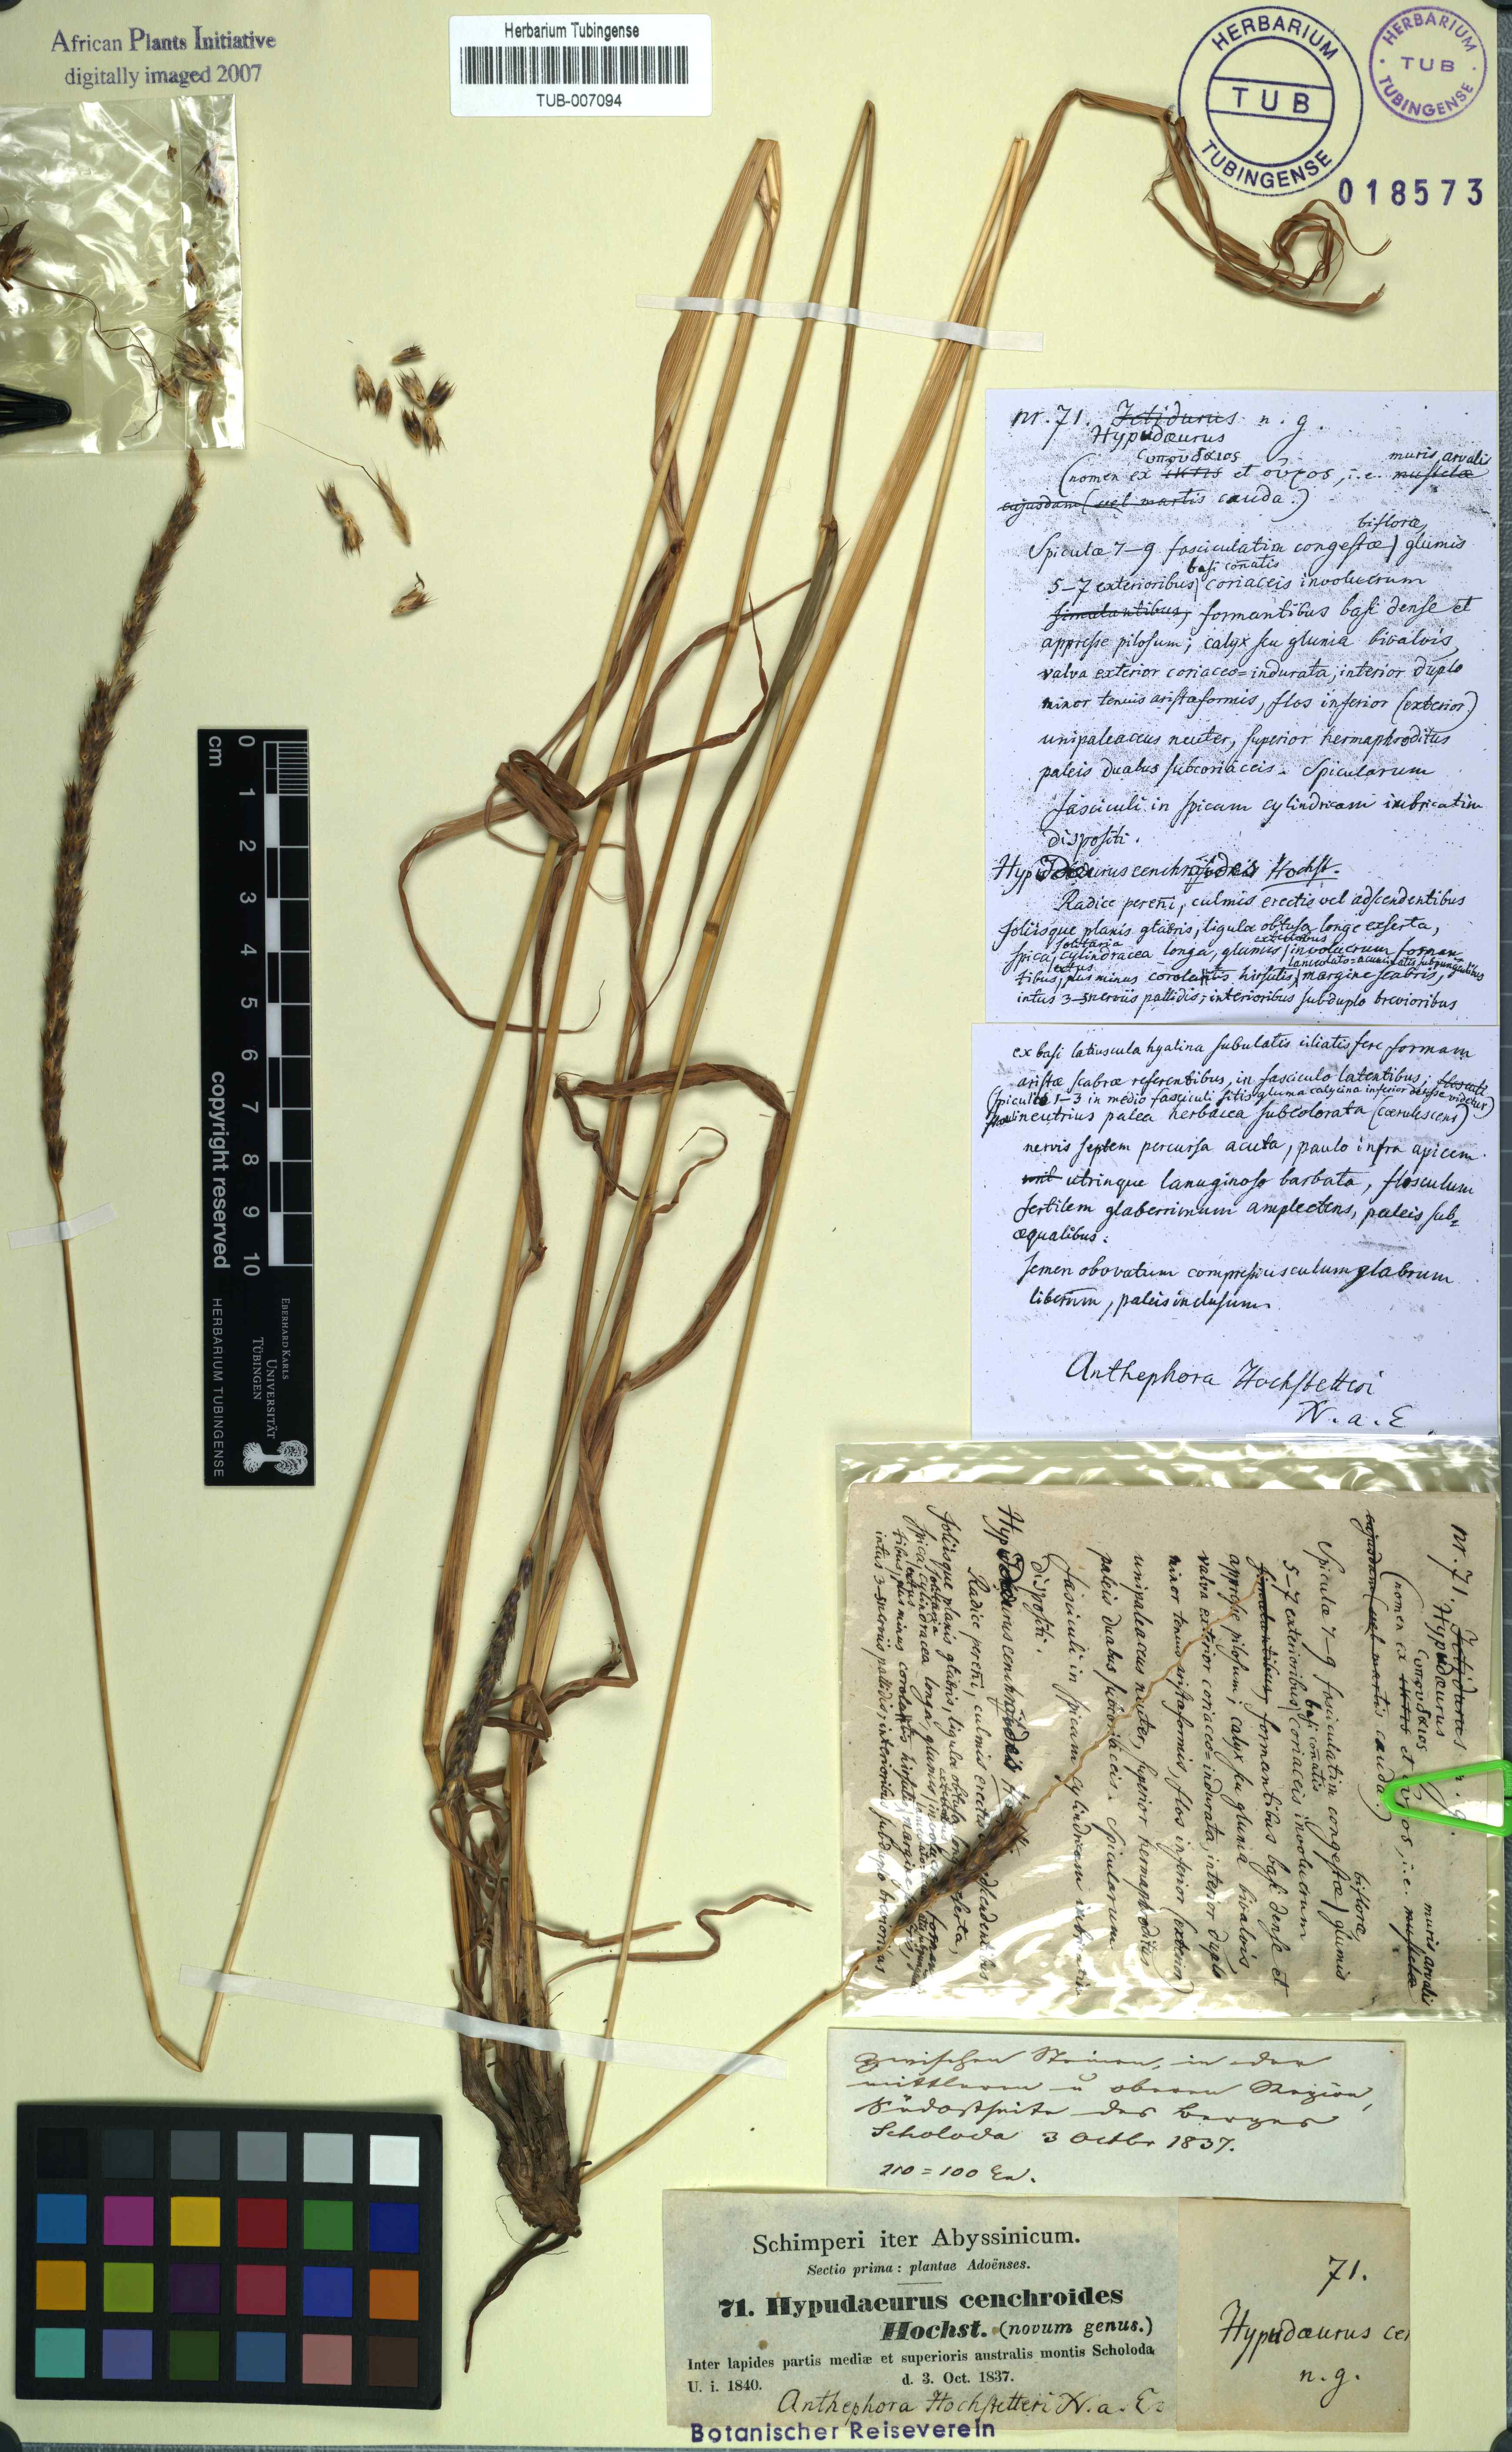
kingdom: Plantae
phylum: Tracheophyta
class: Liliopsida
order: Poales
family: Poaceae
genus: Anthephora
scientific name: Anthephora pubescens
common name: Wool grass
